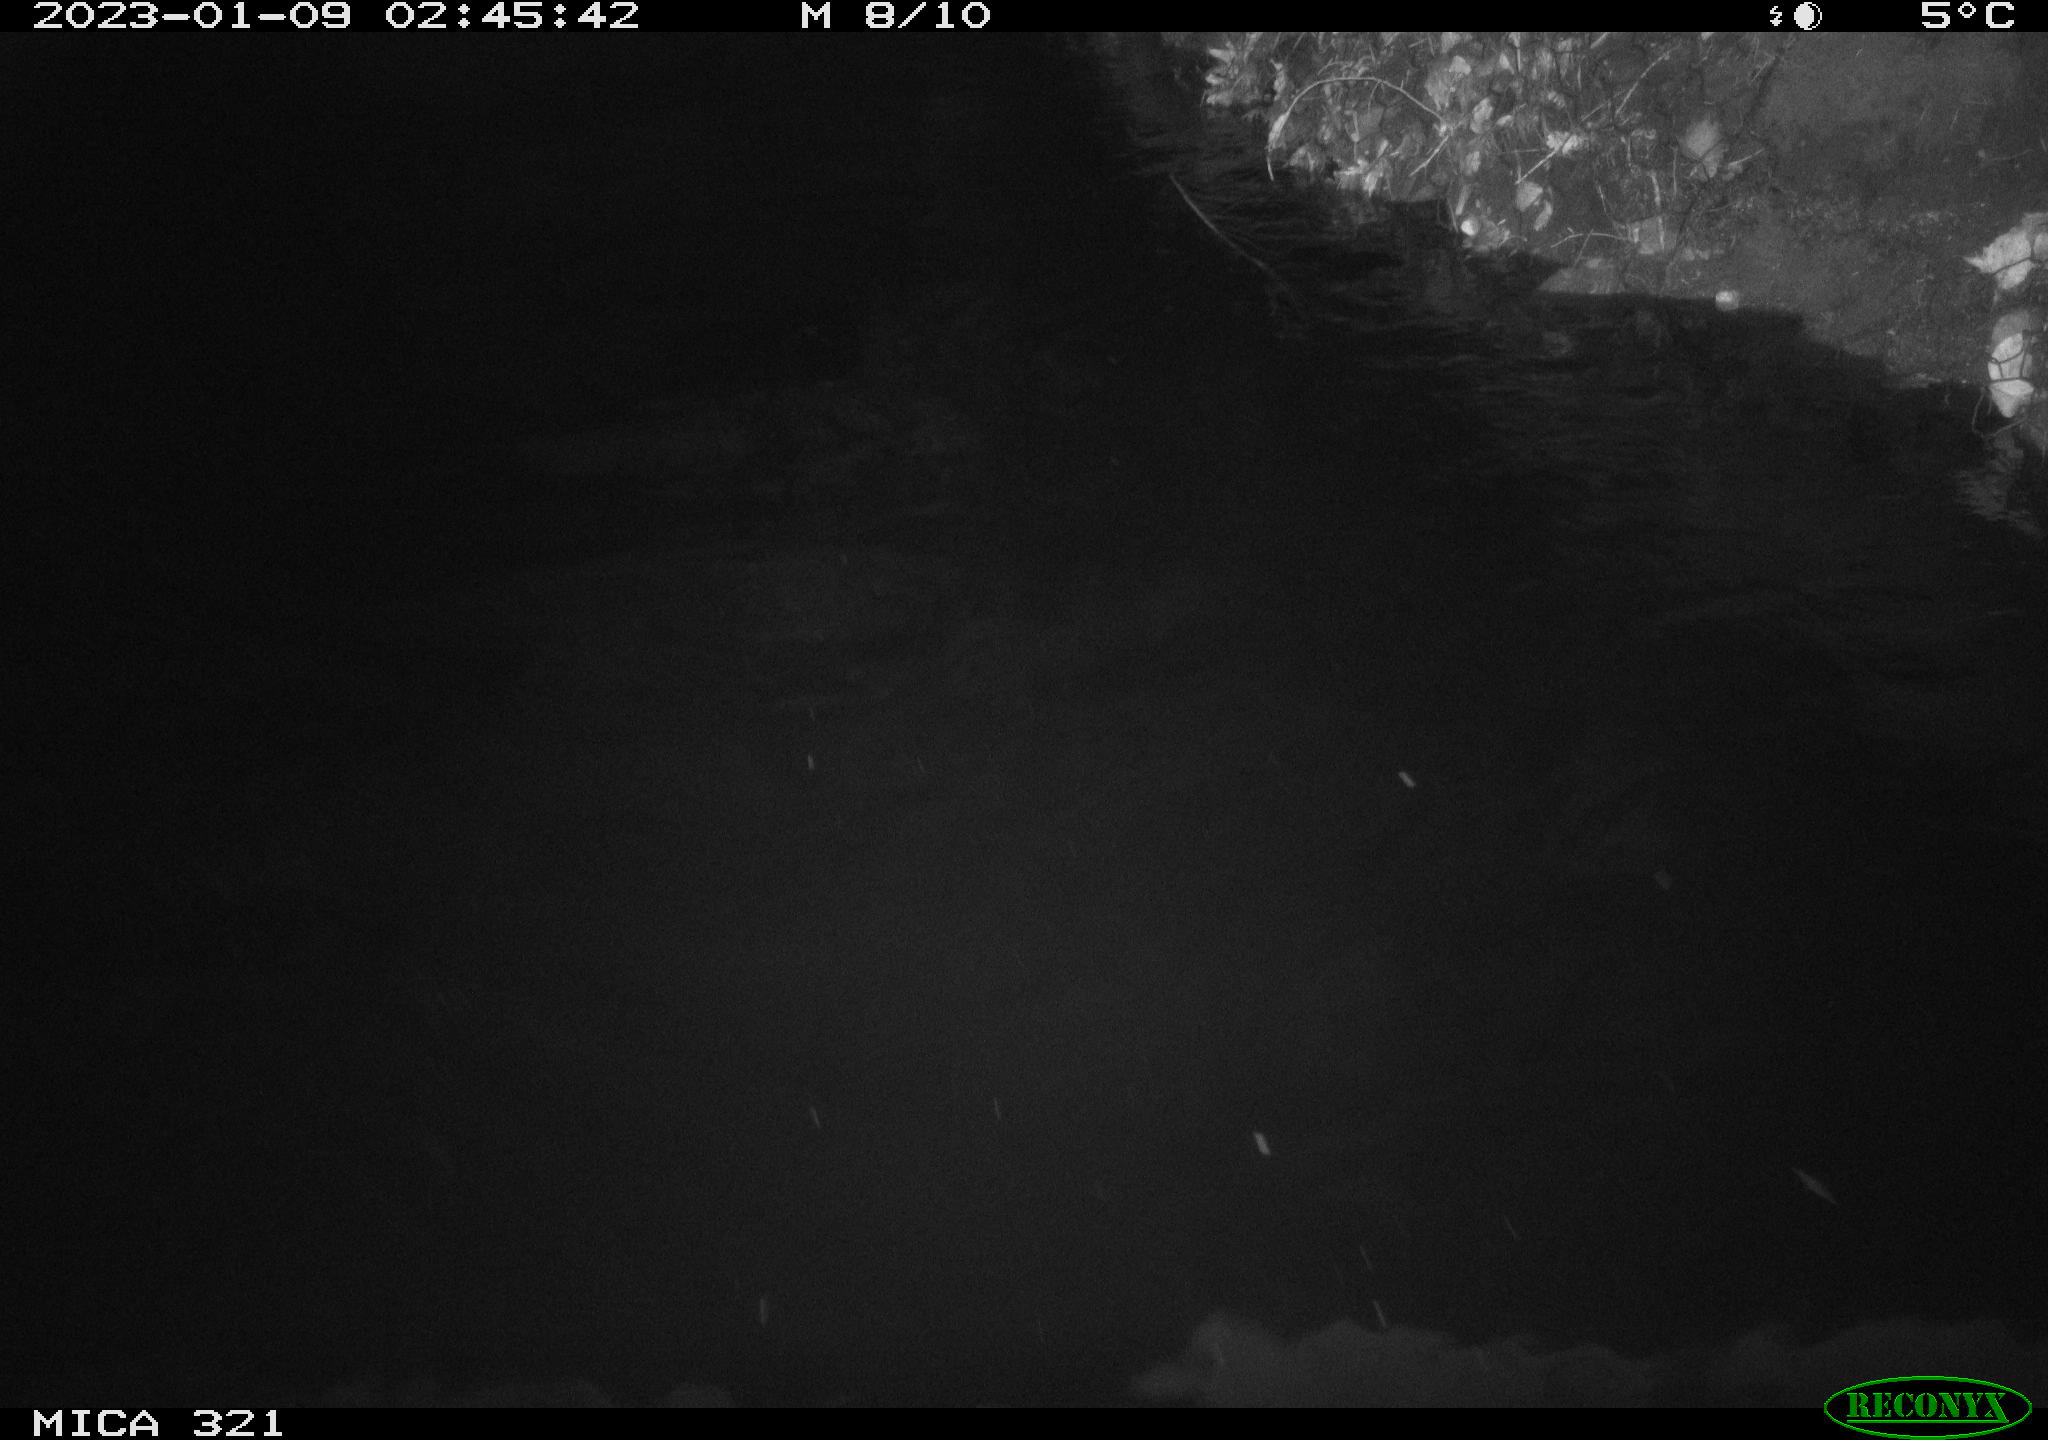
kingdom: Animalia
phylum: Chordata
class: Aves
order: Anseriformes
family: Anatidae
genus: Anas
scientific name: Anas
